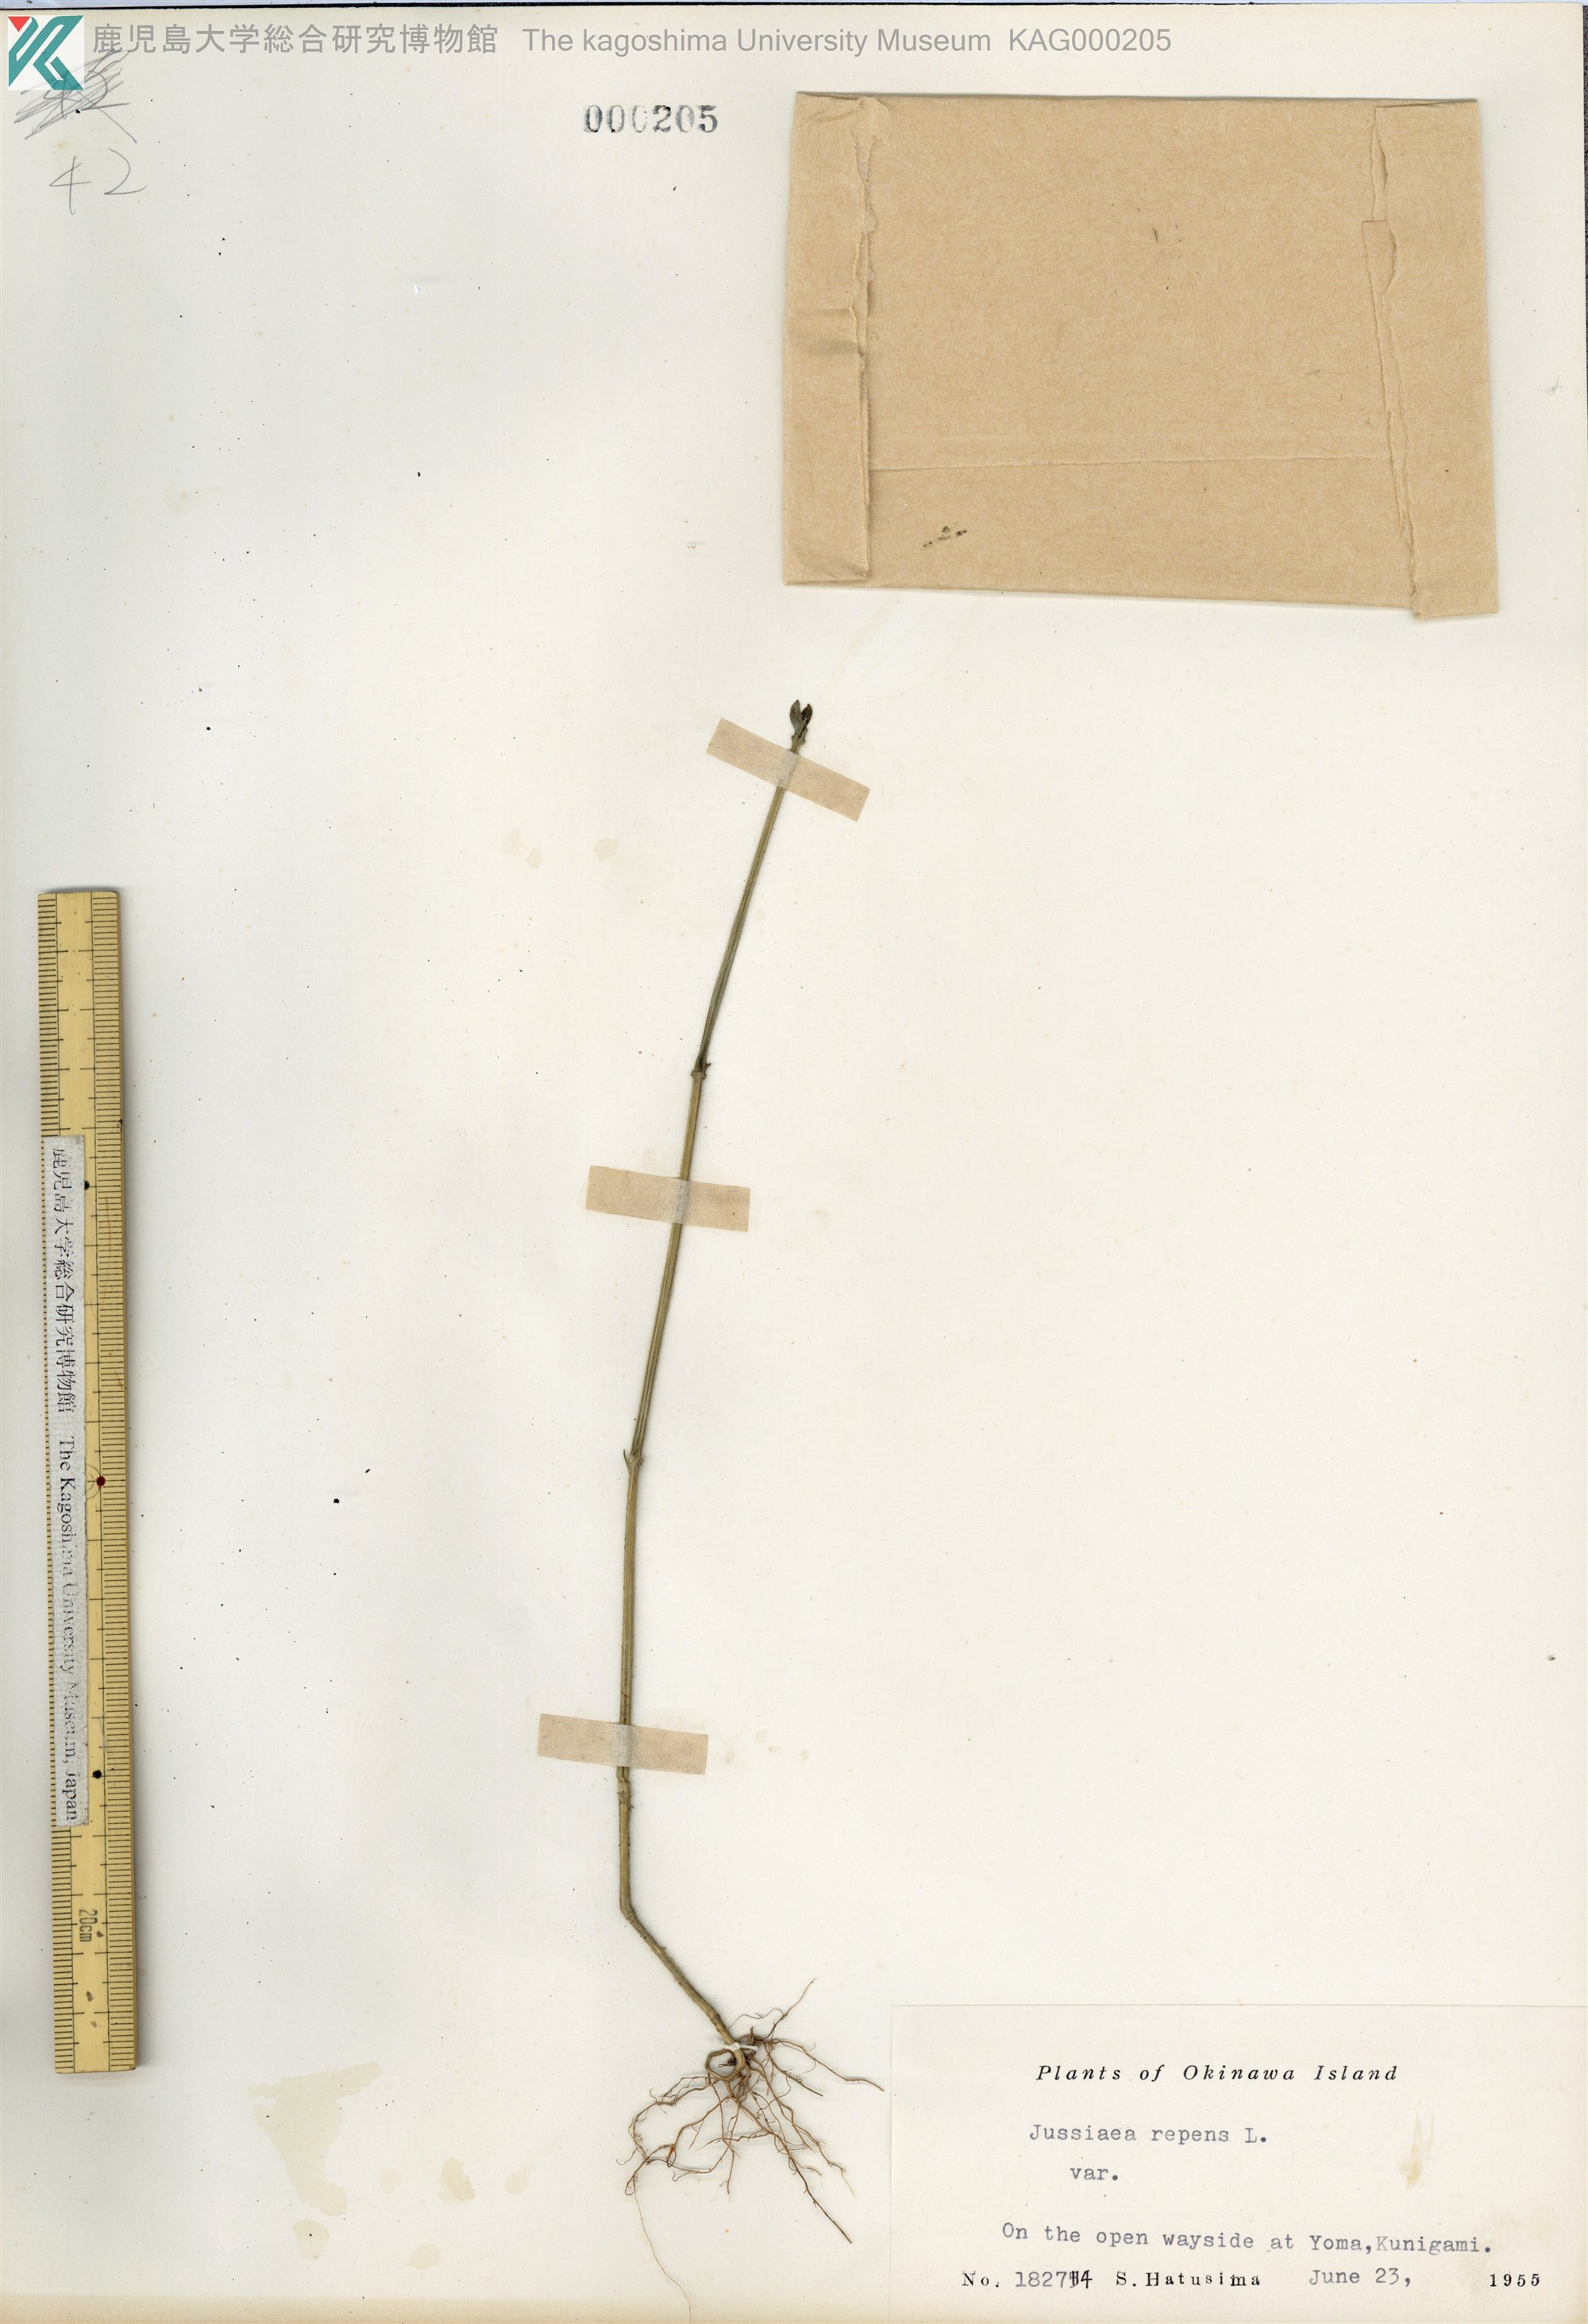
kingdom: Plantae
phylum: Tracheophyta
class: Magnoliopsida
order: Myrtales
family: Onagraceae
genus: Ludwigia
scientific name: Ludwigia adscendens
